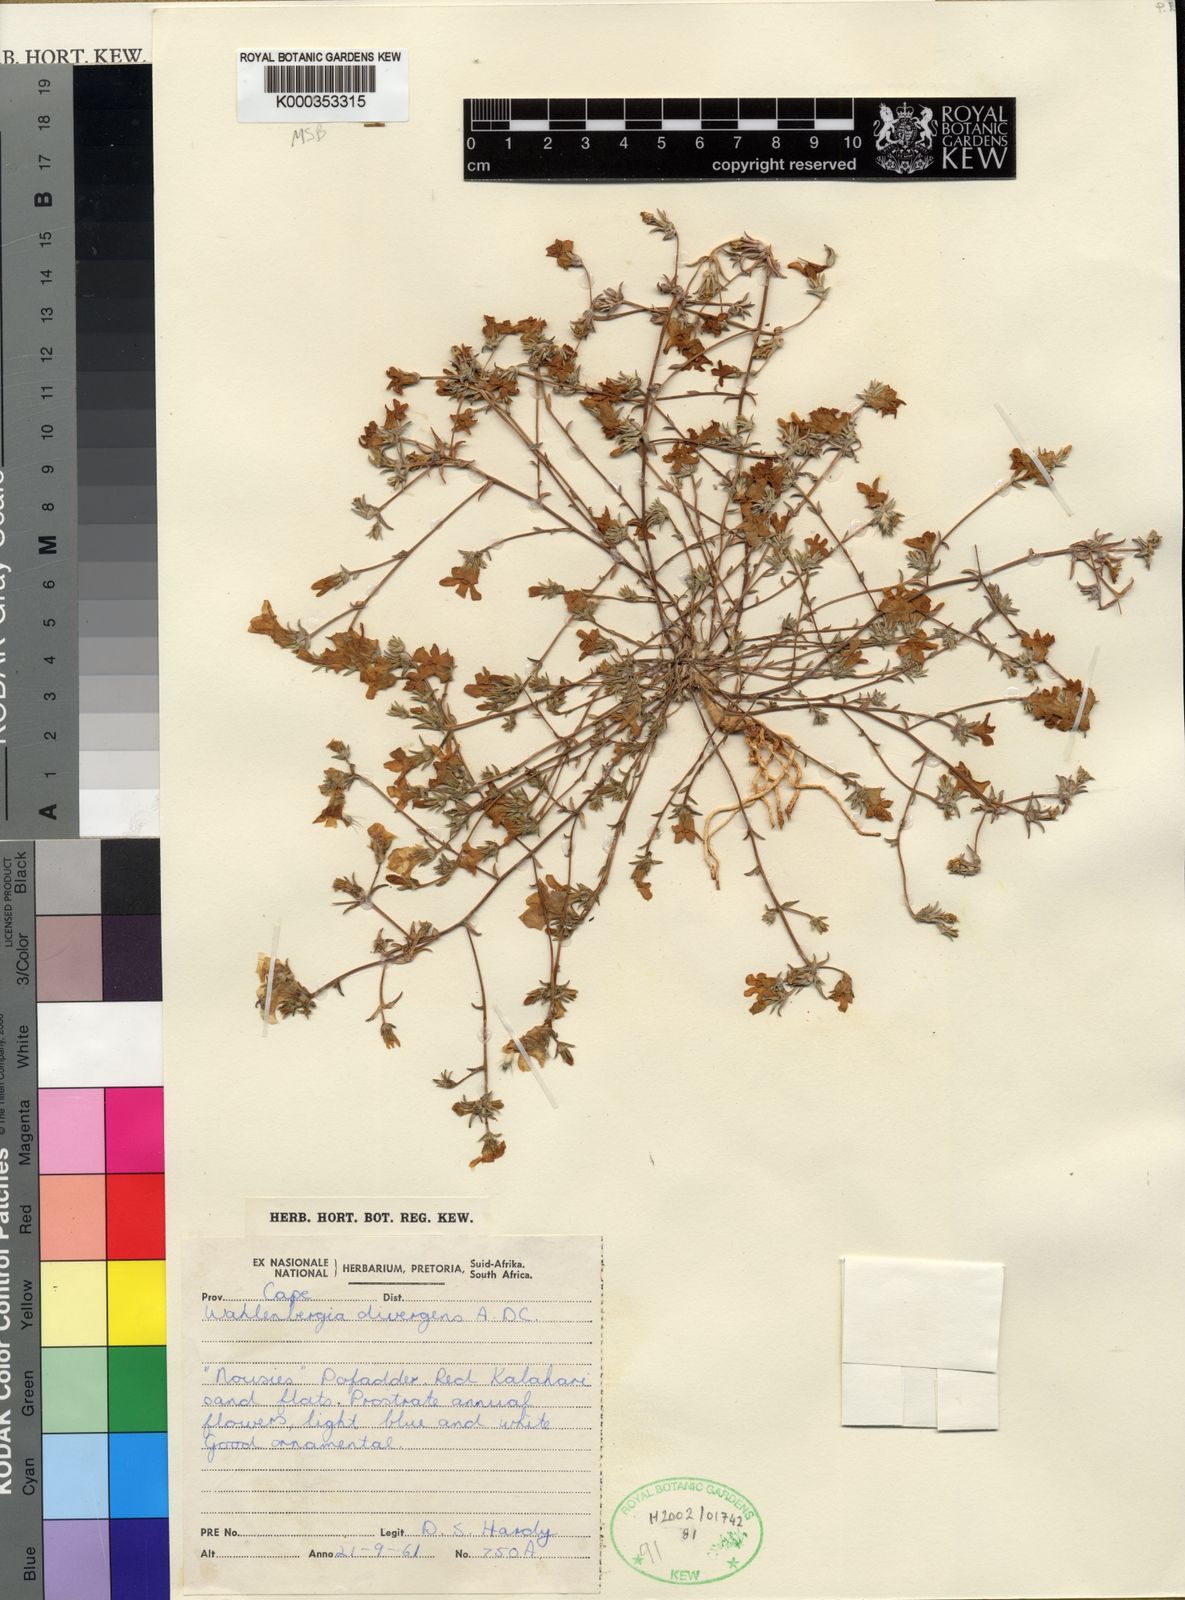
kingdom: Plantae
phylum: Tracheophyta
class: Magnoliopsida
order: Asterales
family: Campanulaceae
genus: Wahlenbergia
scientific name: Wahlenbergia divergens
